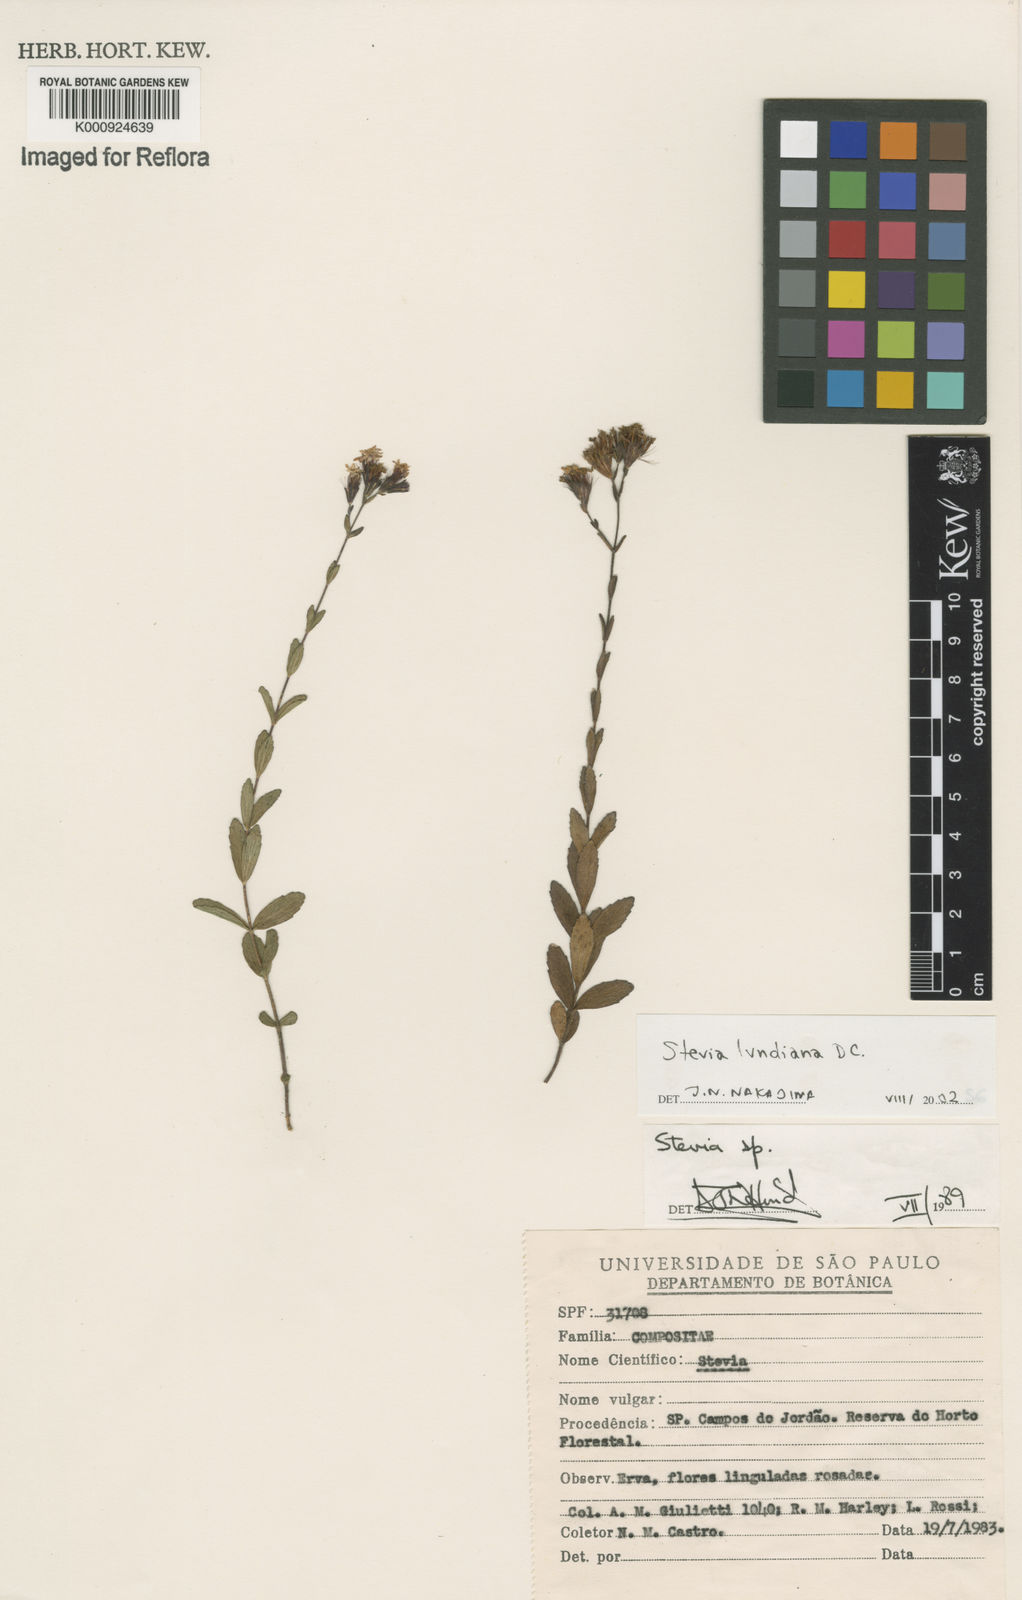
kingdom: Plantae
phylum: Tracheophyta
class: Magnoliopsida
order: Asterales
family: Asteraceae
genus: Stevia
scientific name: Stevia lundiana
